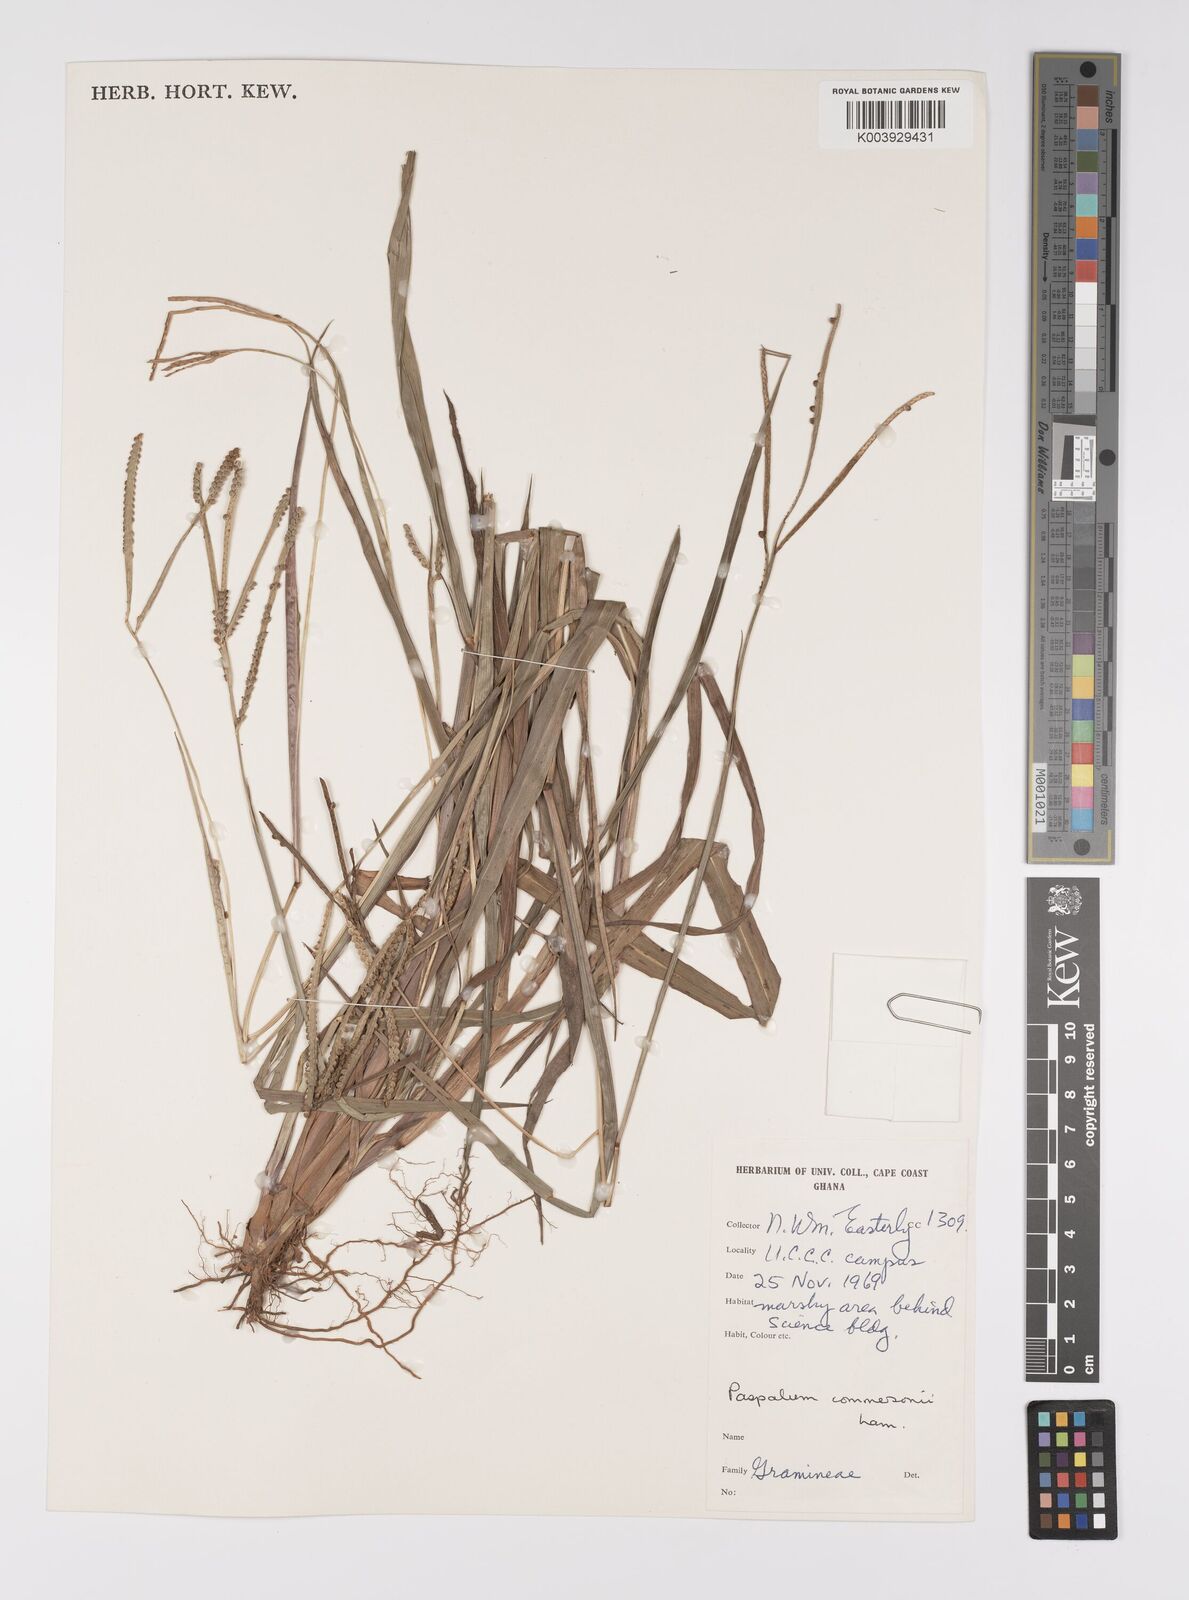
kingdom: Plantae
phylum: Tracheophyta
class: Liliopsida
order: Poales
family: Poaceae
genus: Paspalum
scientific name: Paspalum scrobiculatum
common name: Kodo millet
